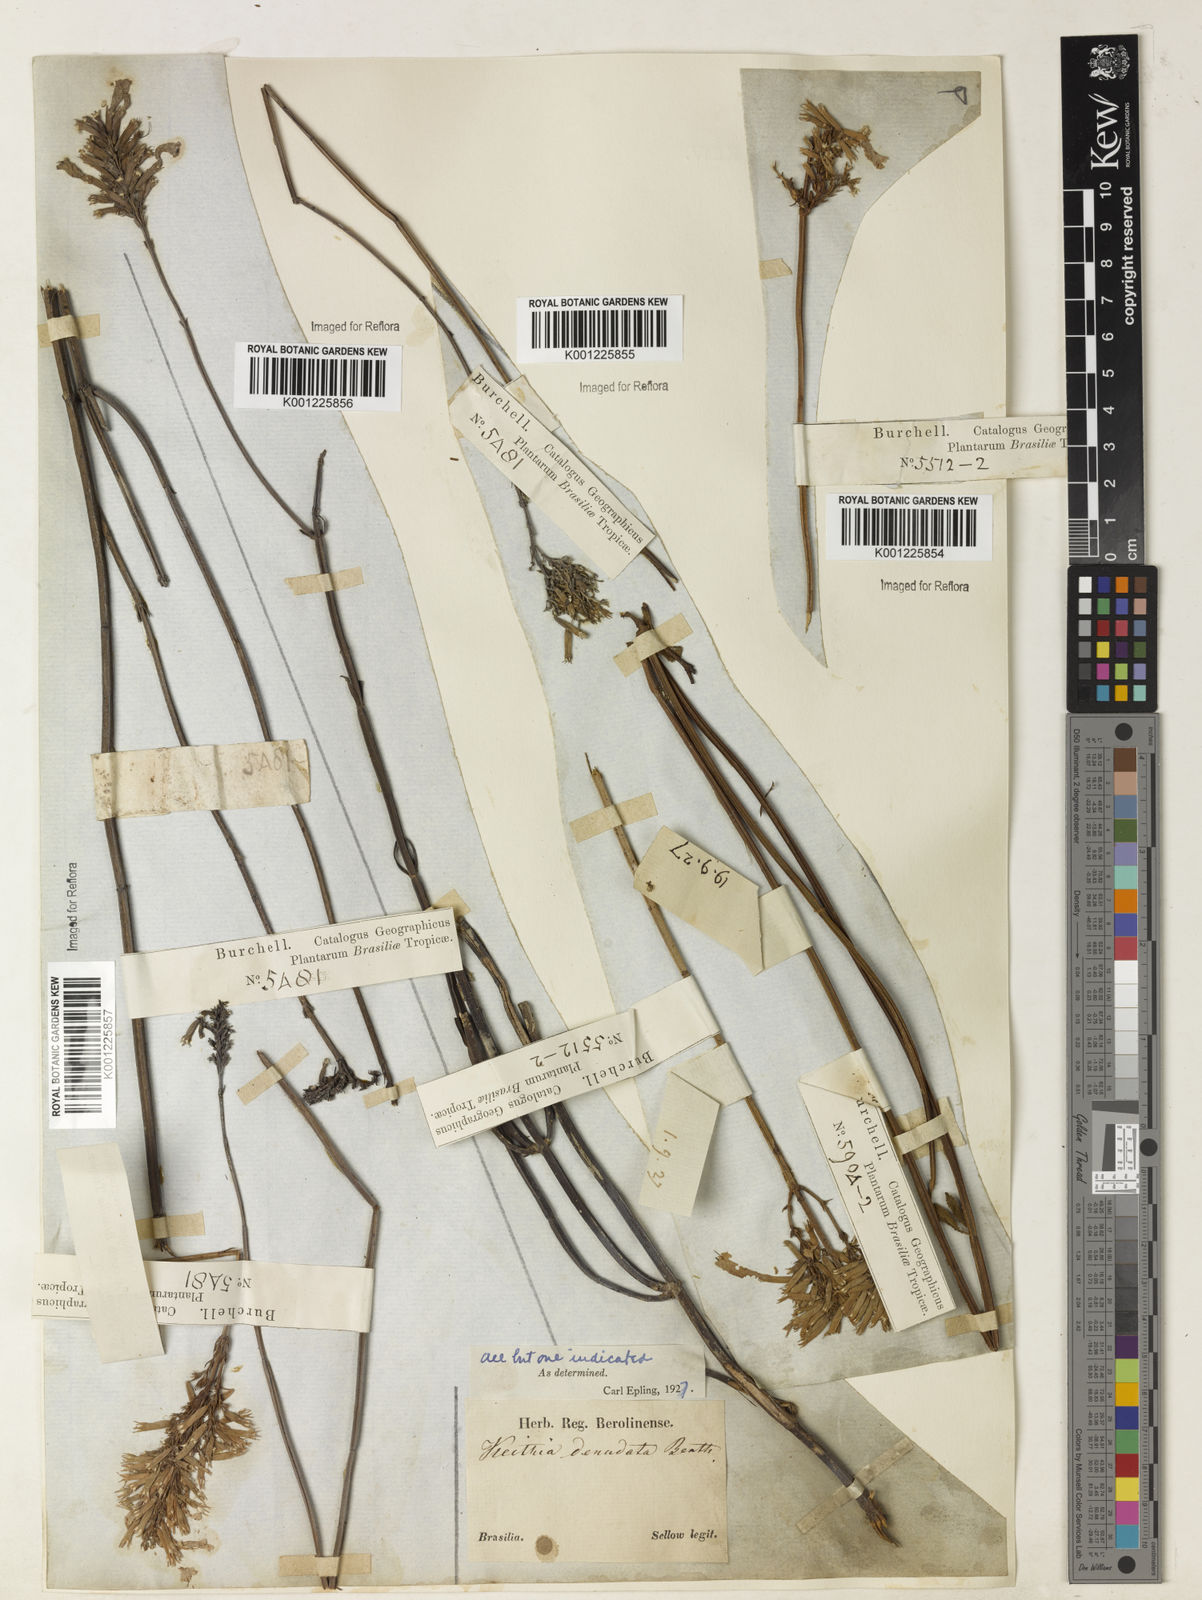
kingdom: Plantae
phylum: Tracheophyta
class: Magnoliopsida
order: Lamiales
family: Lamiaceae
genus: Rhabdocaulon
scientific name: Rhabdocaulon denudatum
